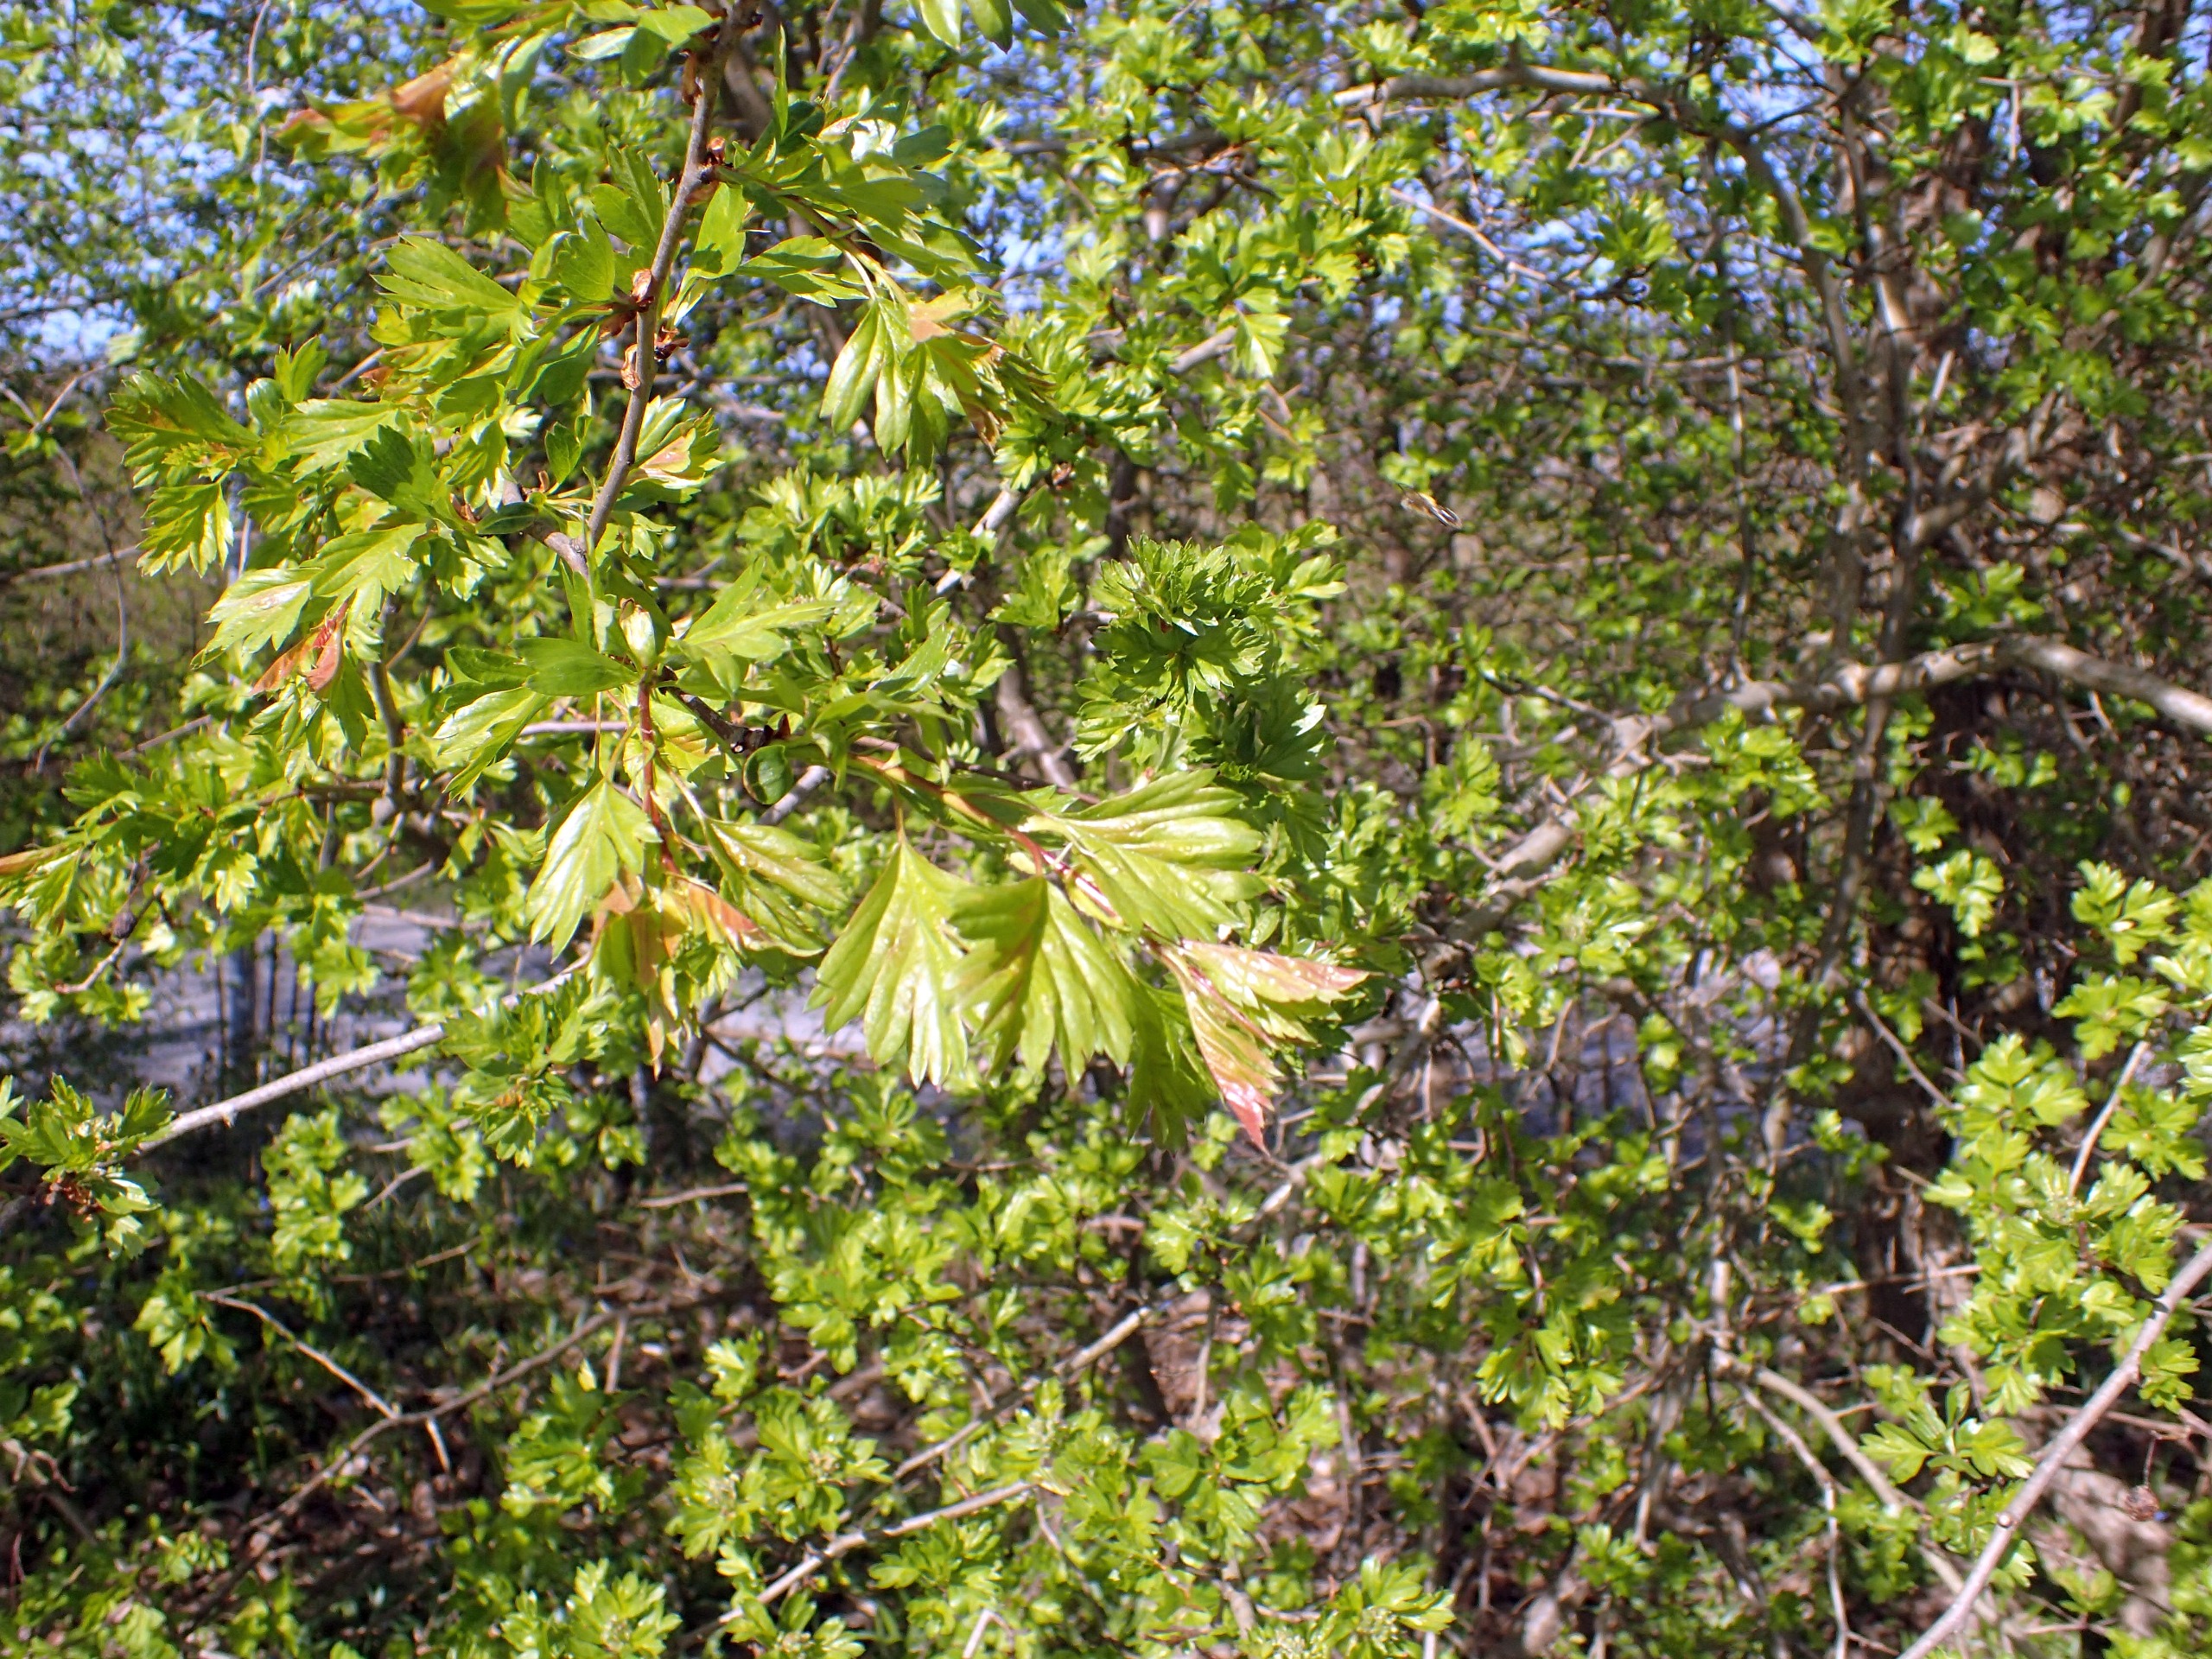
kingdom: Plantae
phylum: Tracheophyta
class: Magnoliopsida
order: Rosales
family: Rosaceae
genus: Crataegus
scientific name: Crataegus monogyna
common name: Engriflet hvidtjørn
